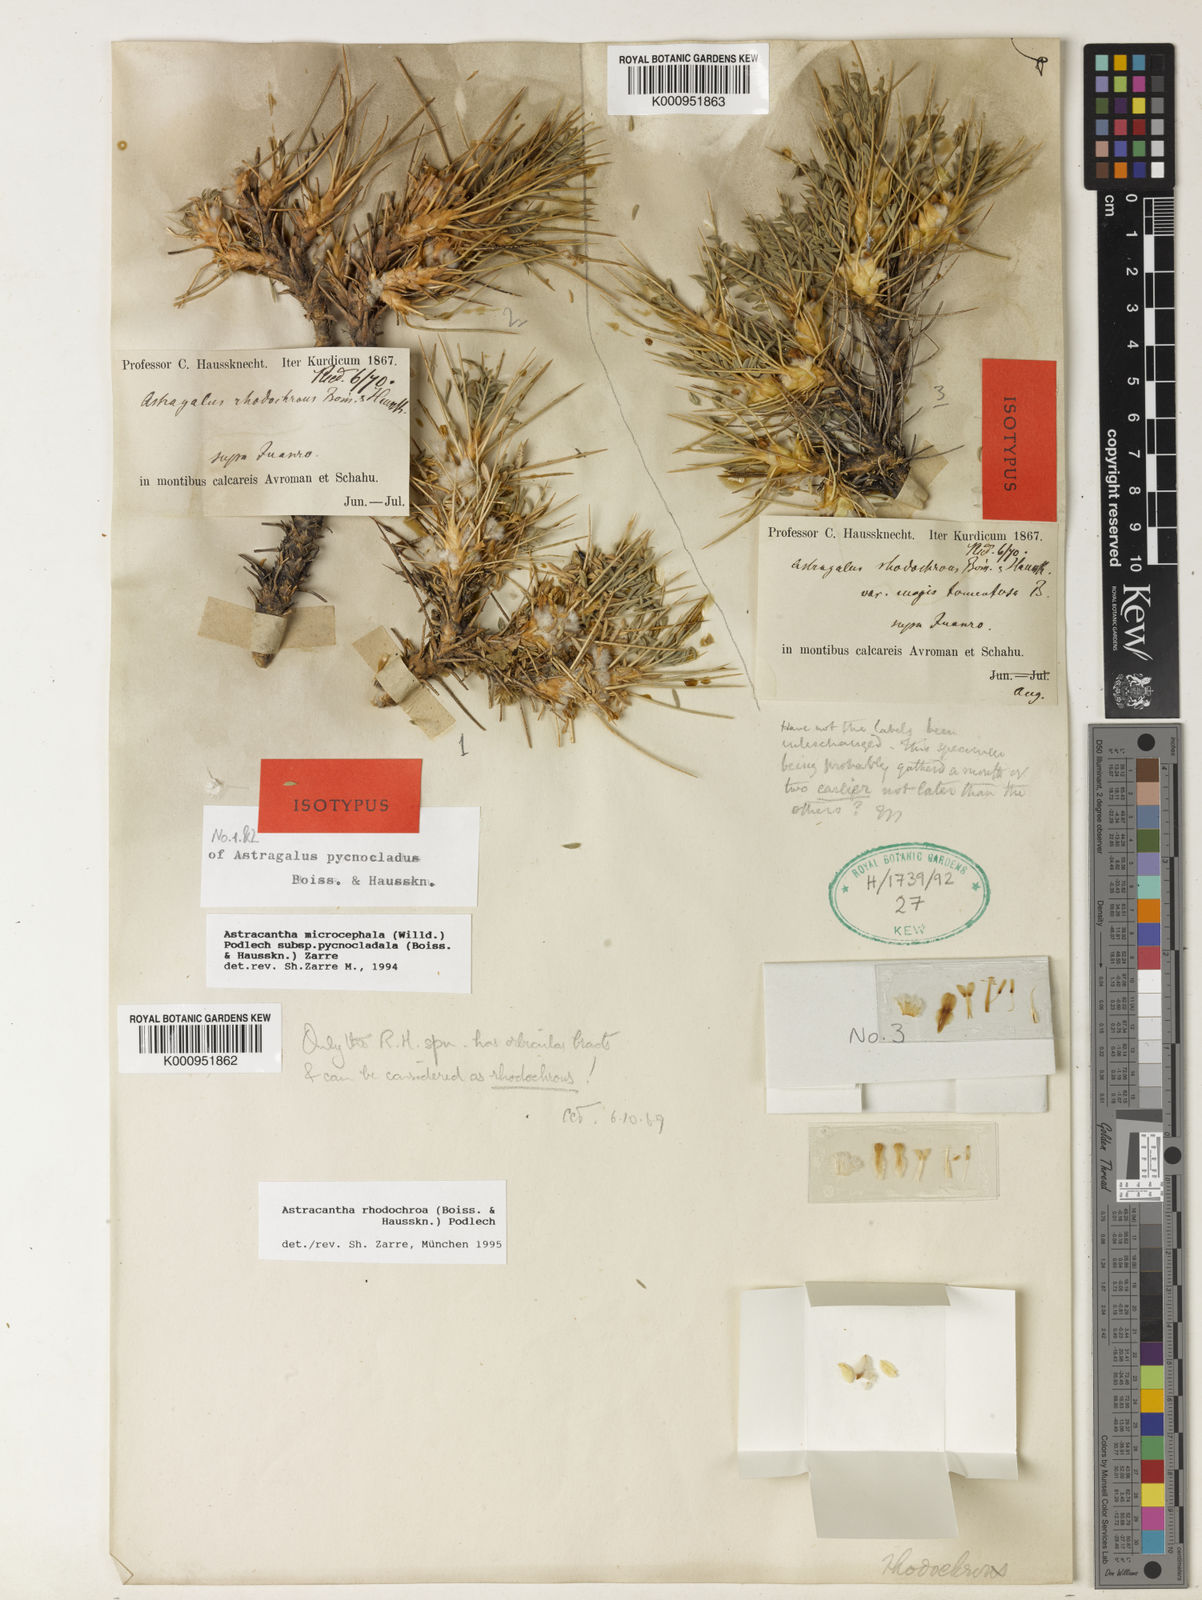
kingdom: Plantae
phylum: Tracheophyta
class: Magnoliopsida
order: Fabales
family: Fabaceae
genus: Astragalus
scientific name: Astragalus rhodochrous
